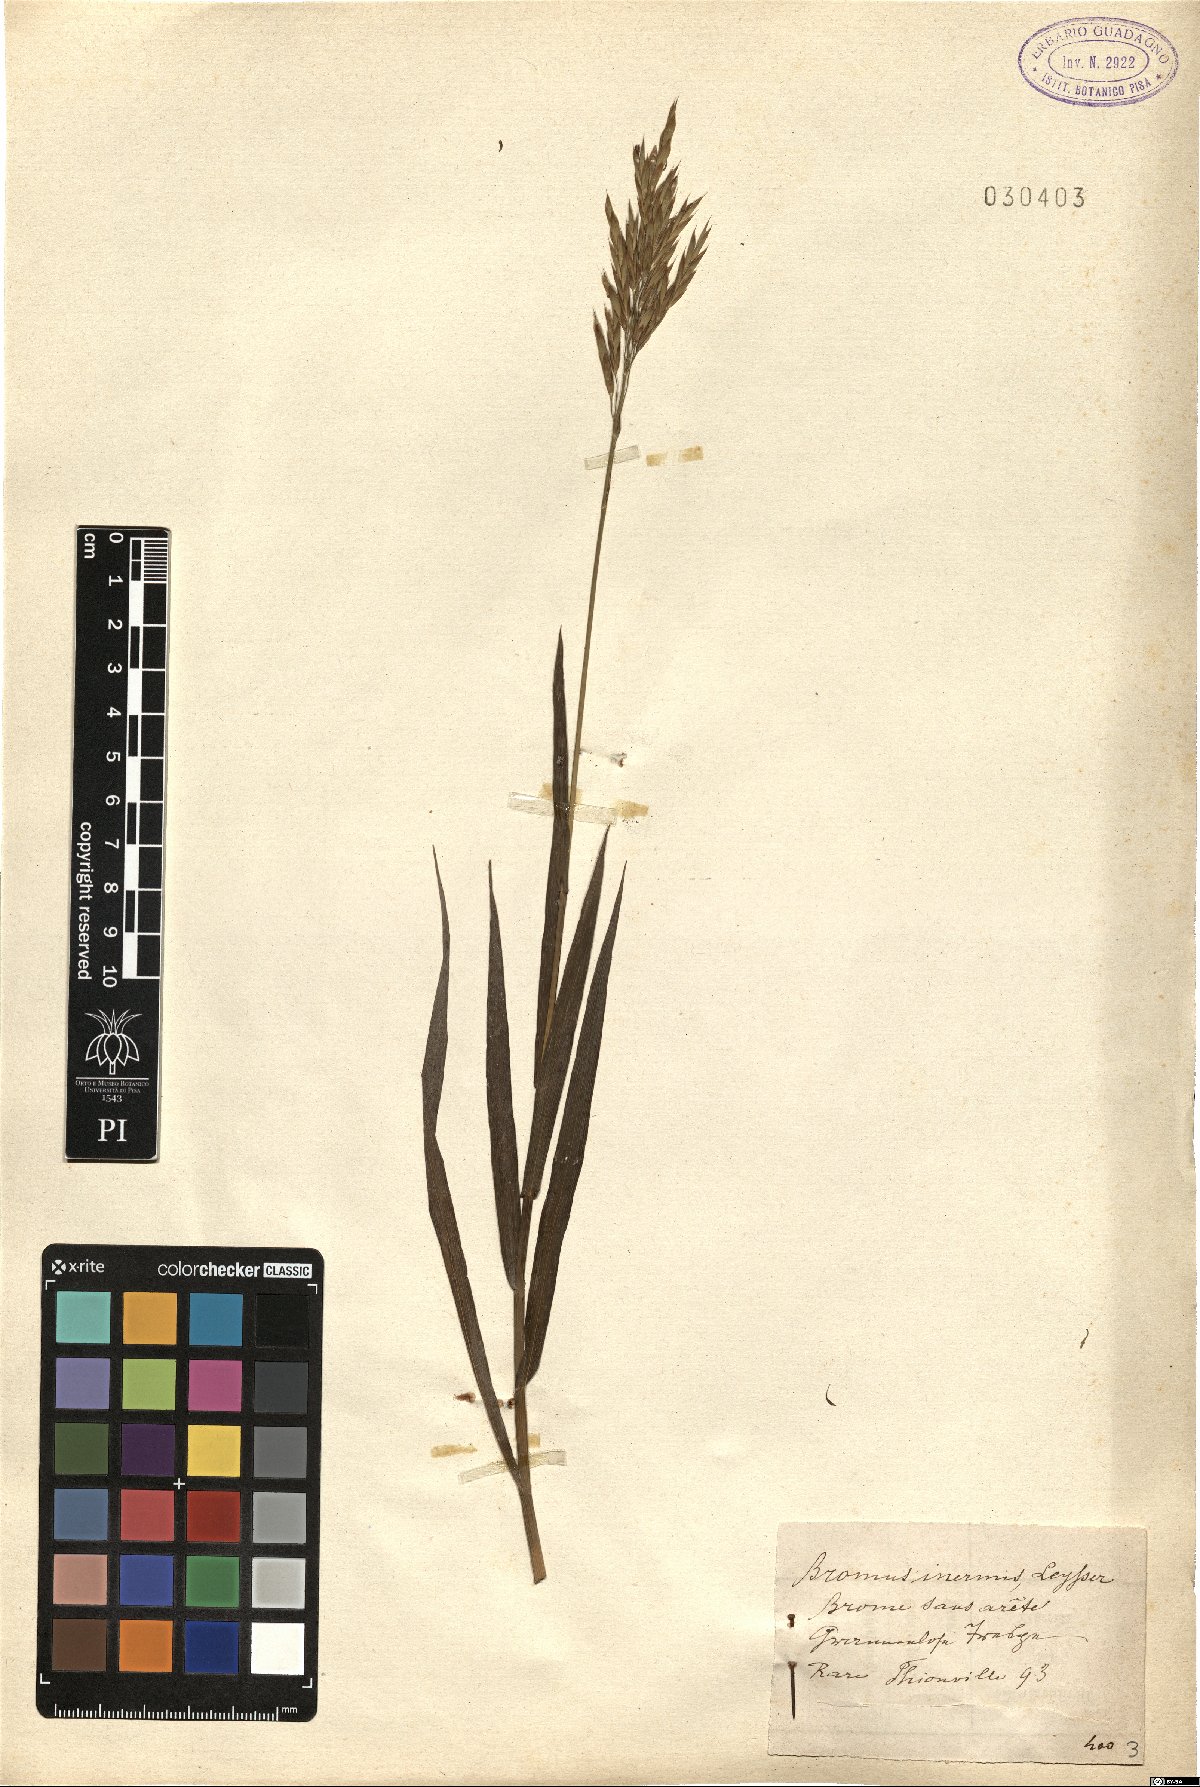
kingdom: Plantae
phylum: Tracheophyta
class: Liliopsida
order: Poales
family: Poaceae
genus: Bromus
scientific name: Bromus inermis
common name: Smooth brome
